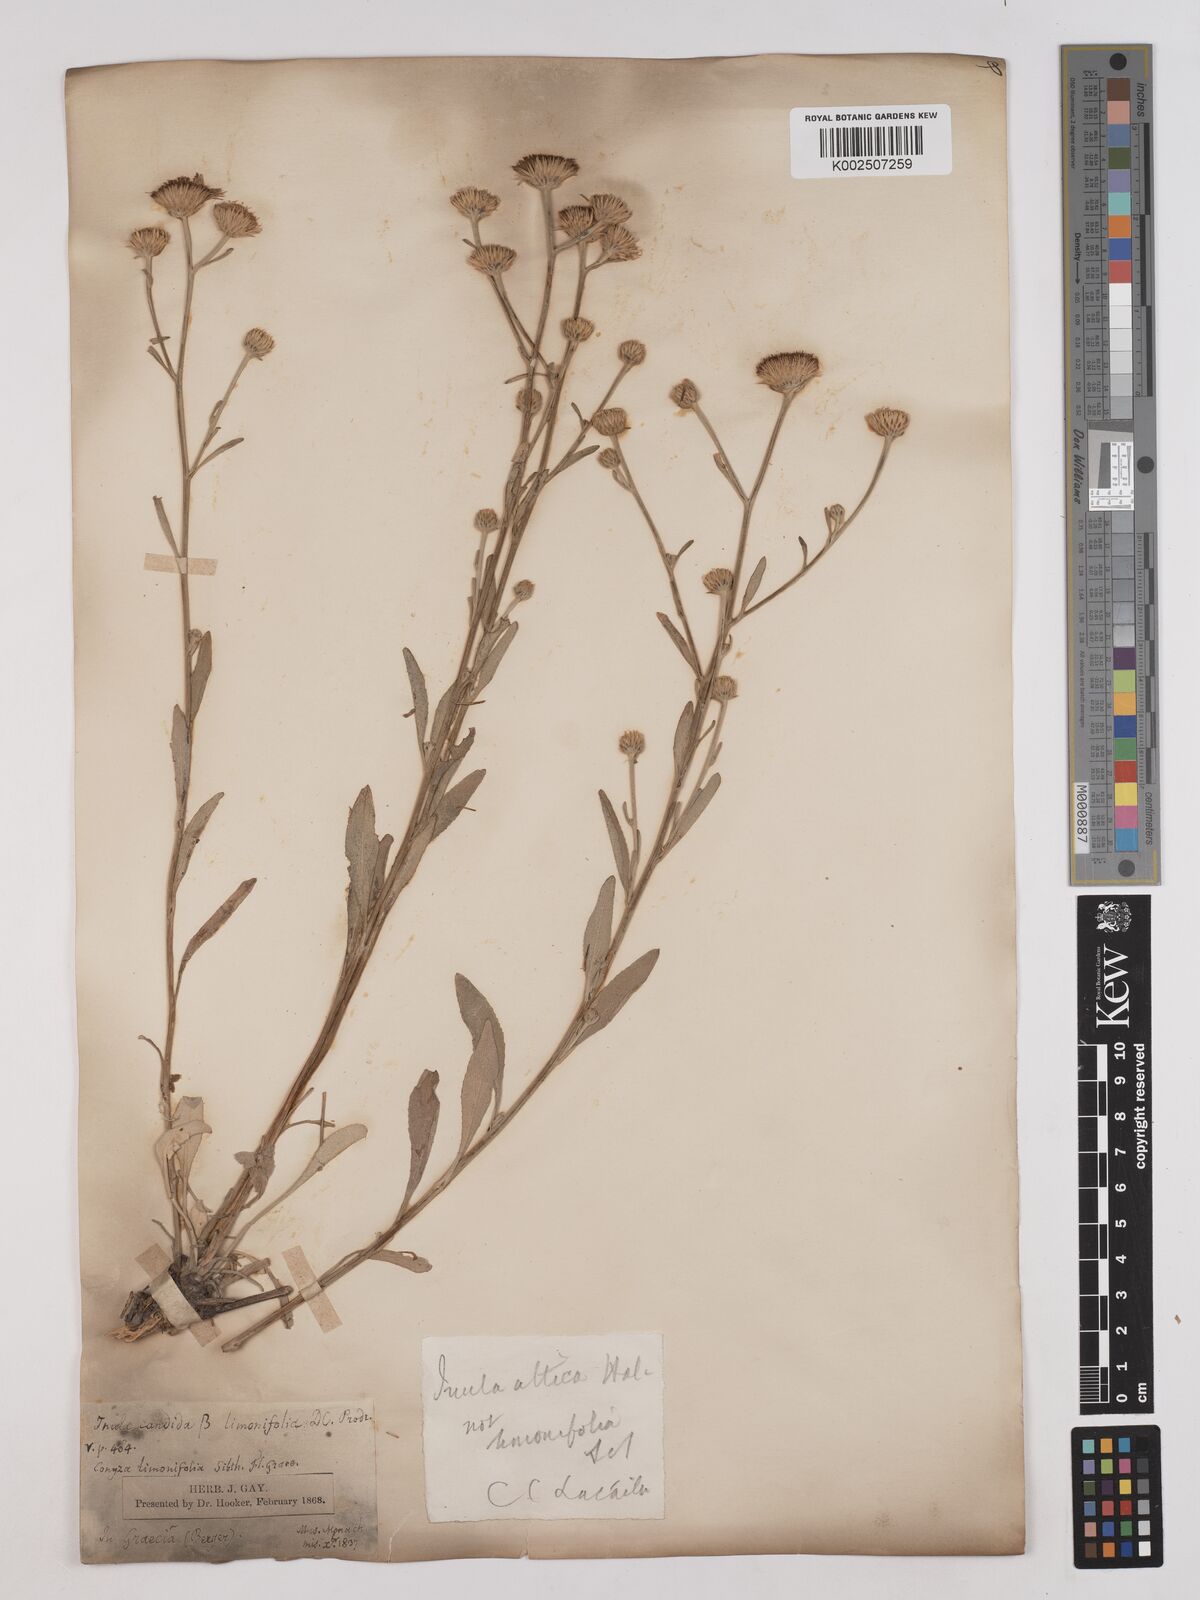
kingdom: Plantae
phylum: Tracheophyta
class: Magnoliopsida
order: Asterales
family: Asteraceae
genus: Pentanema
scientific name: Pentanema verbascifolium
